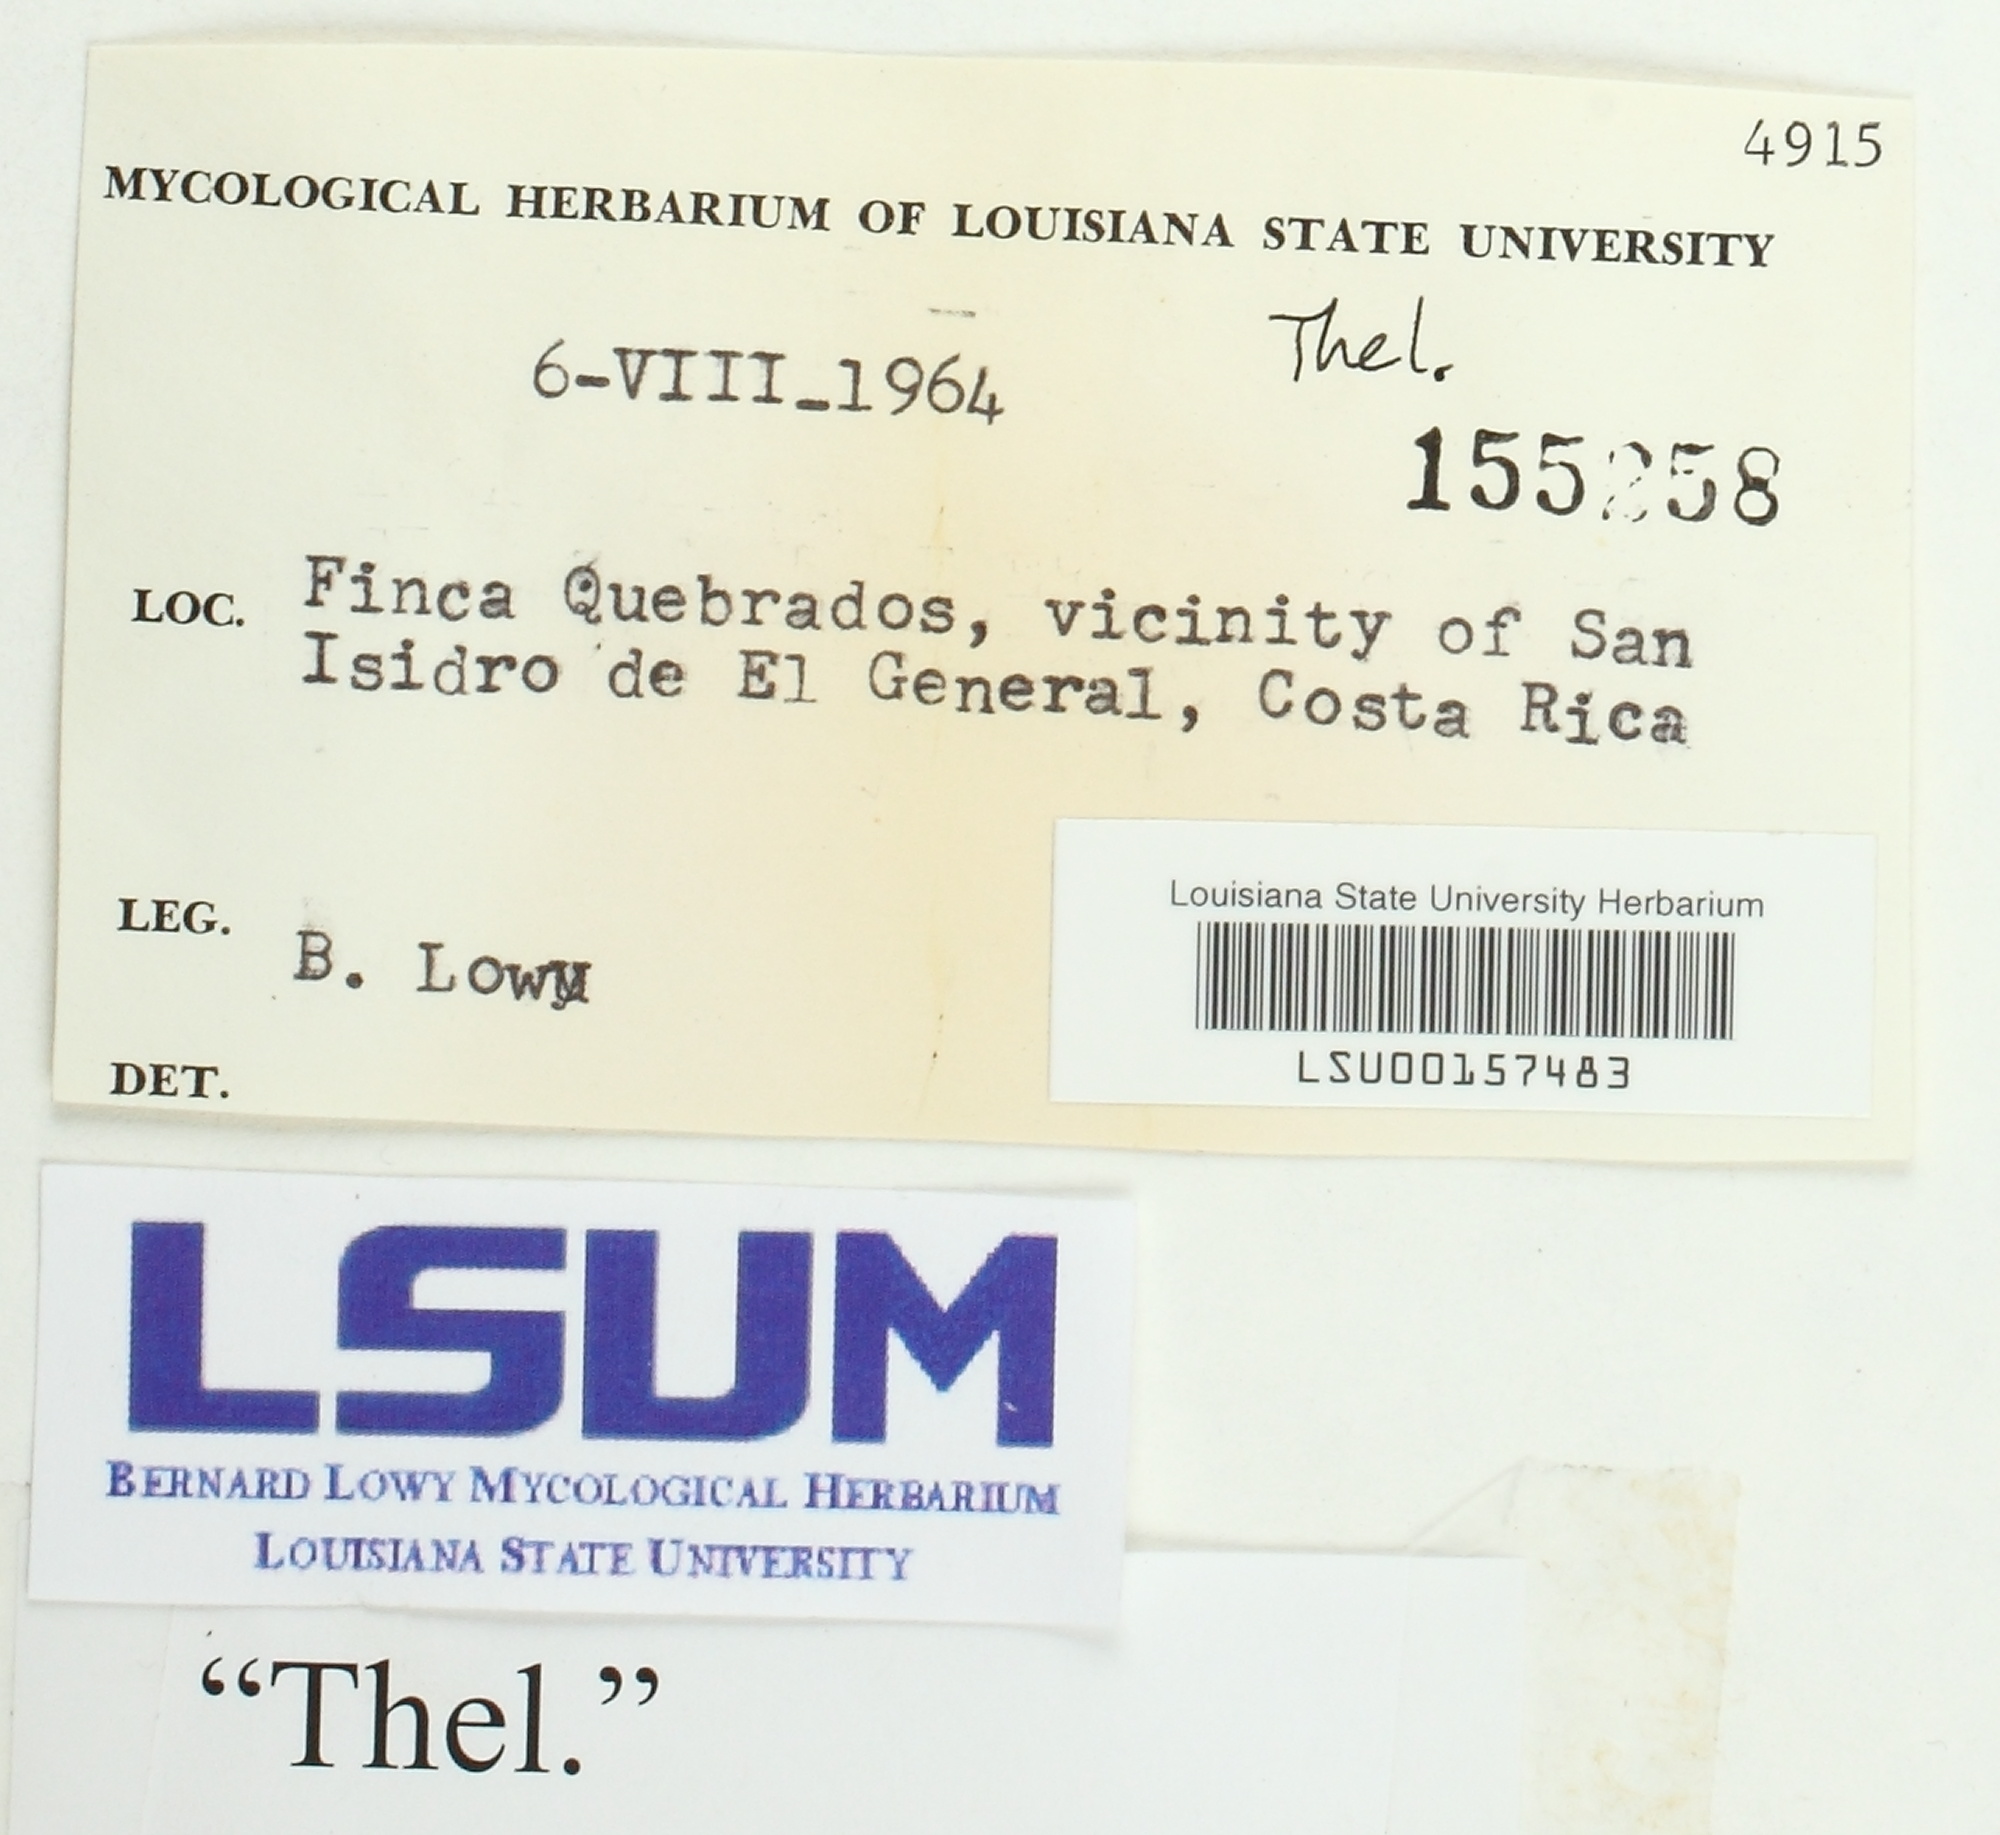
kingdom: Fungi
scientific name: Fungi
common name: Fungi
